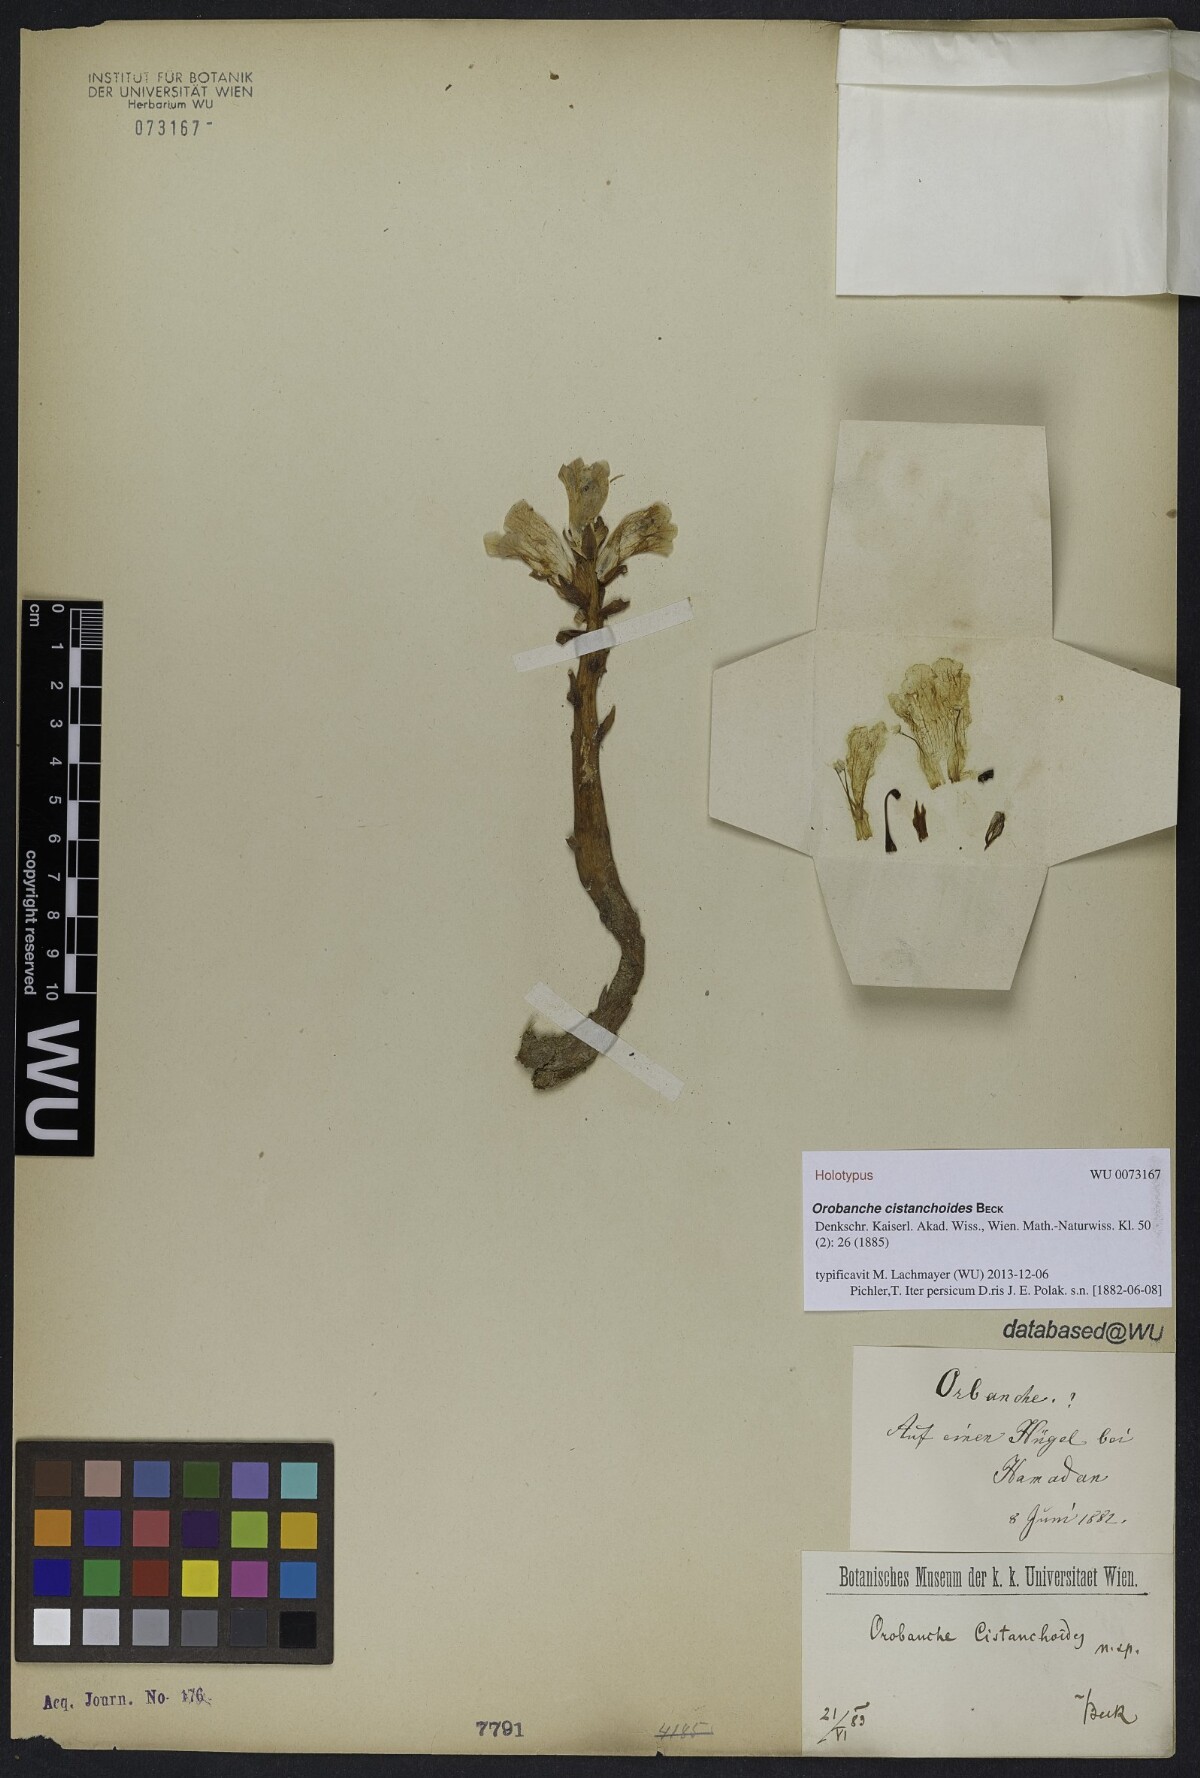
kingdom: Plantae
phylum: Tracheophyta
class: Magnoliopsida
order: Lamiales
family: Orobanchaceae
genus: Orobanche
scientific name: Orobanche stocksii
